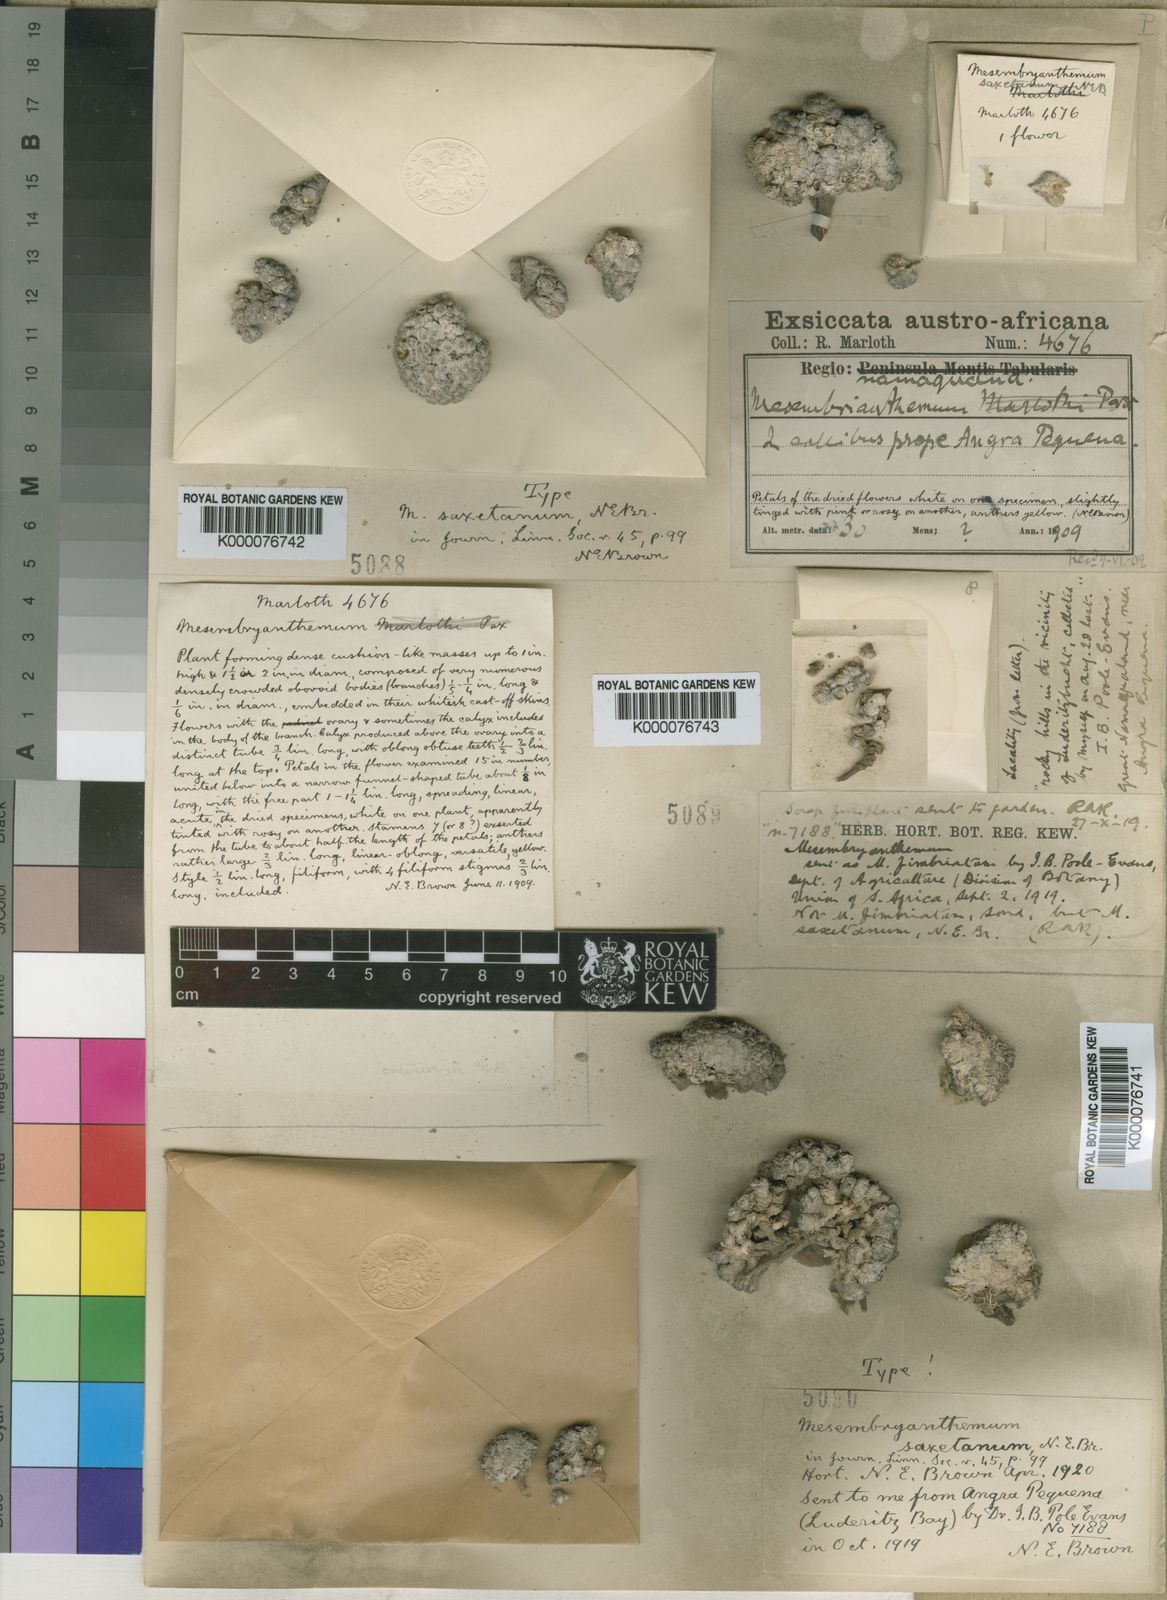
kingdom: Plantae
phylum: Tracheophyta
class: Magnoliopsida
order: Caryophyllales
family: Aizoaceae
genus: Conophytum
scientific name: Conophytum saxetanum
